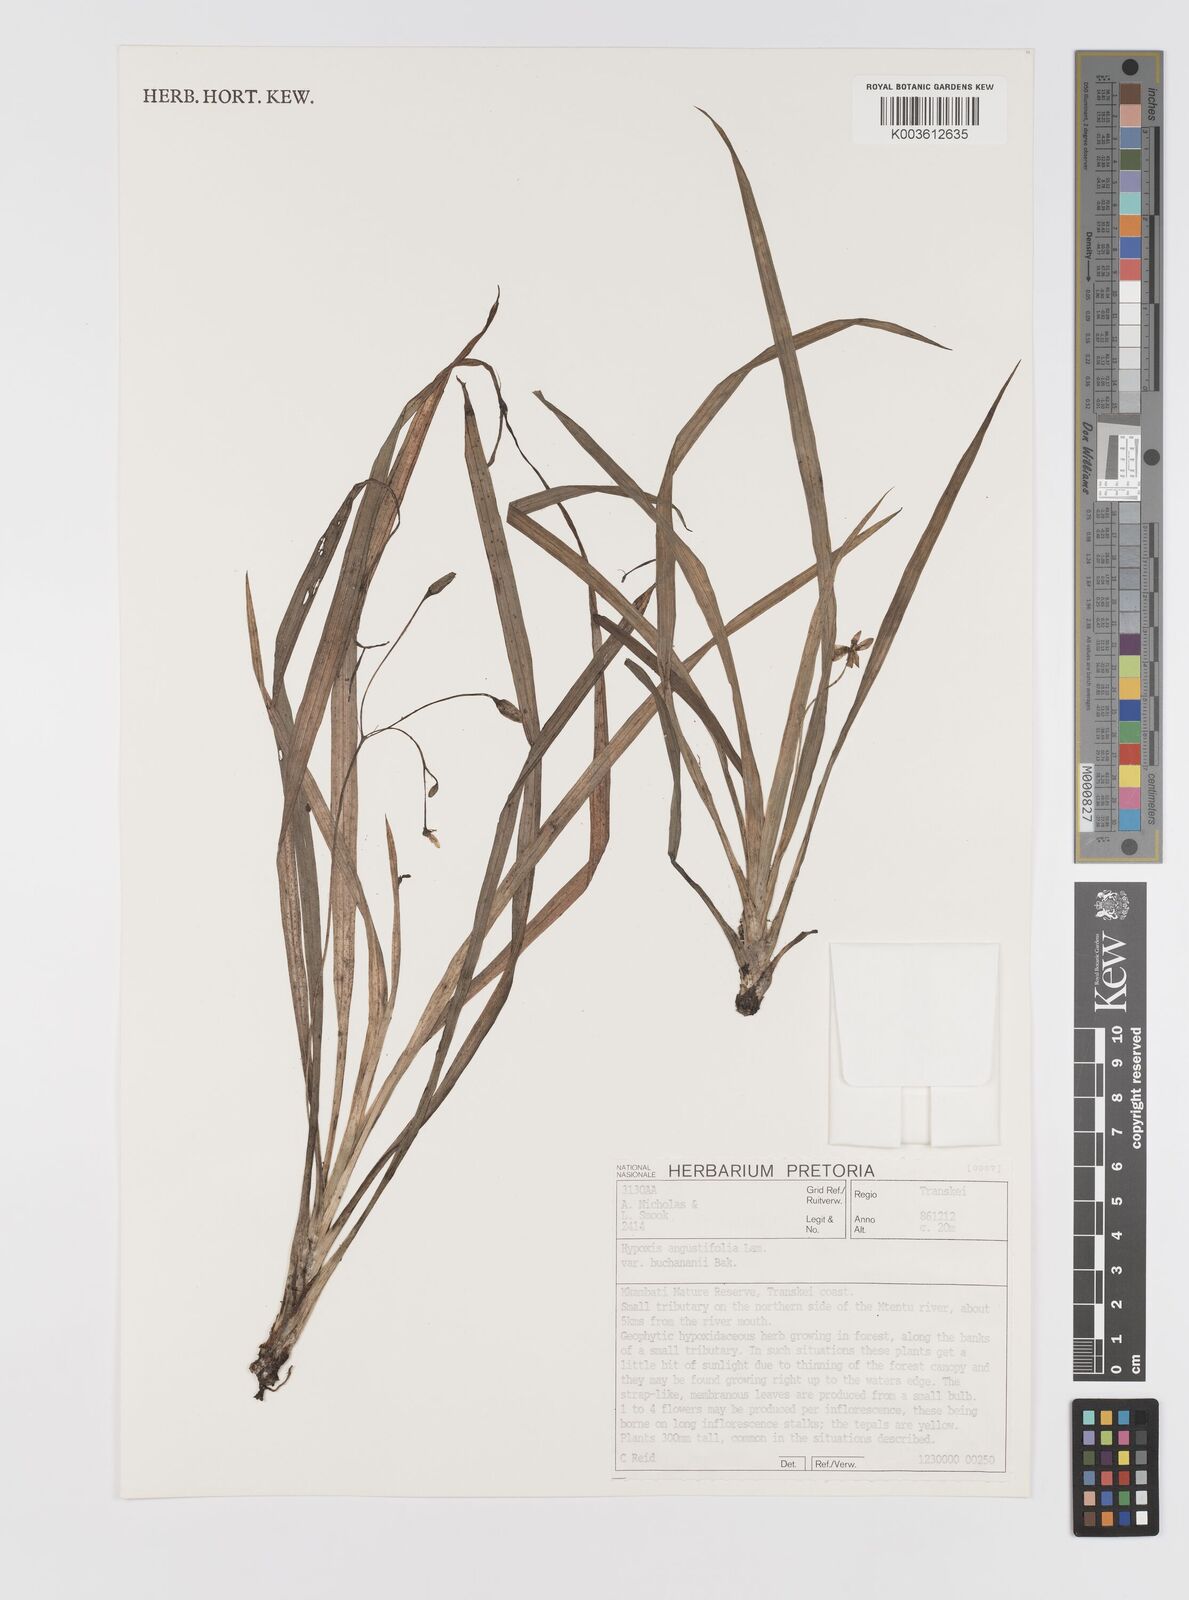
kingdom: Plantae
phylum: Tracheophyta
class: Liliopsida
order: Asparagales
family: Hypoxidaceae
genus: Hypoxis
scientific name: Hypoxis angustifolia
